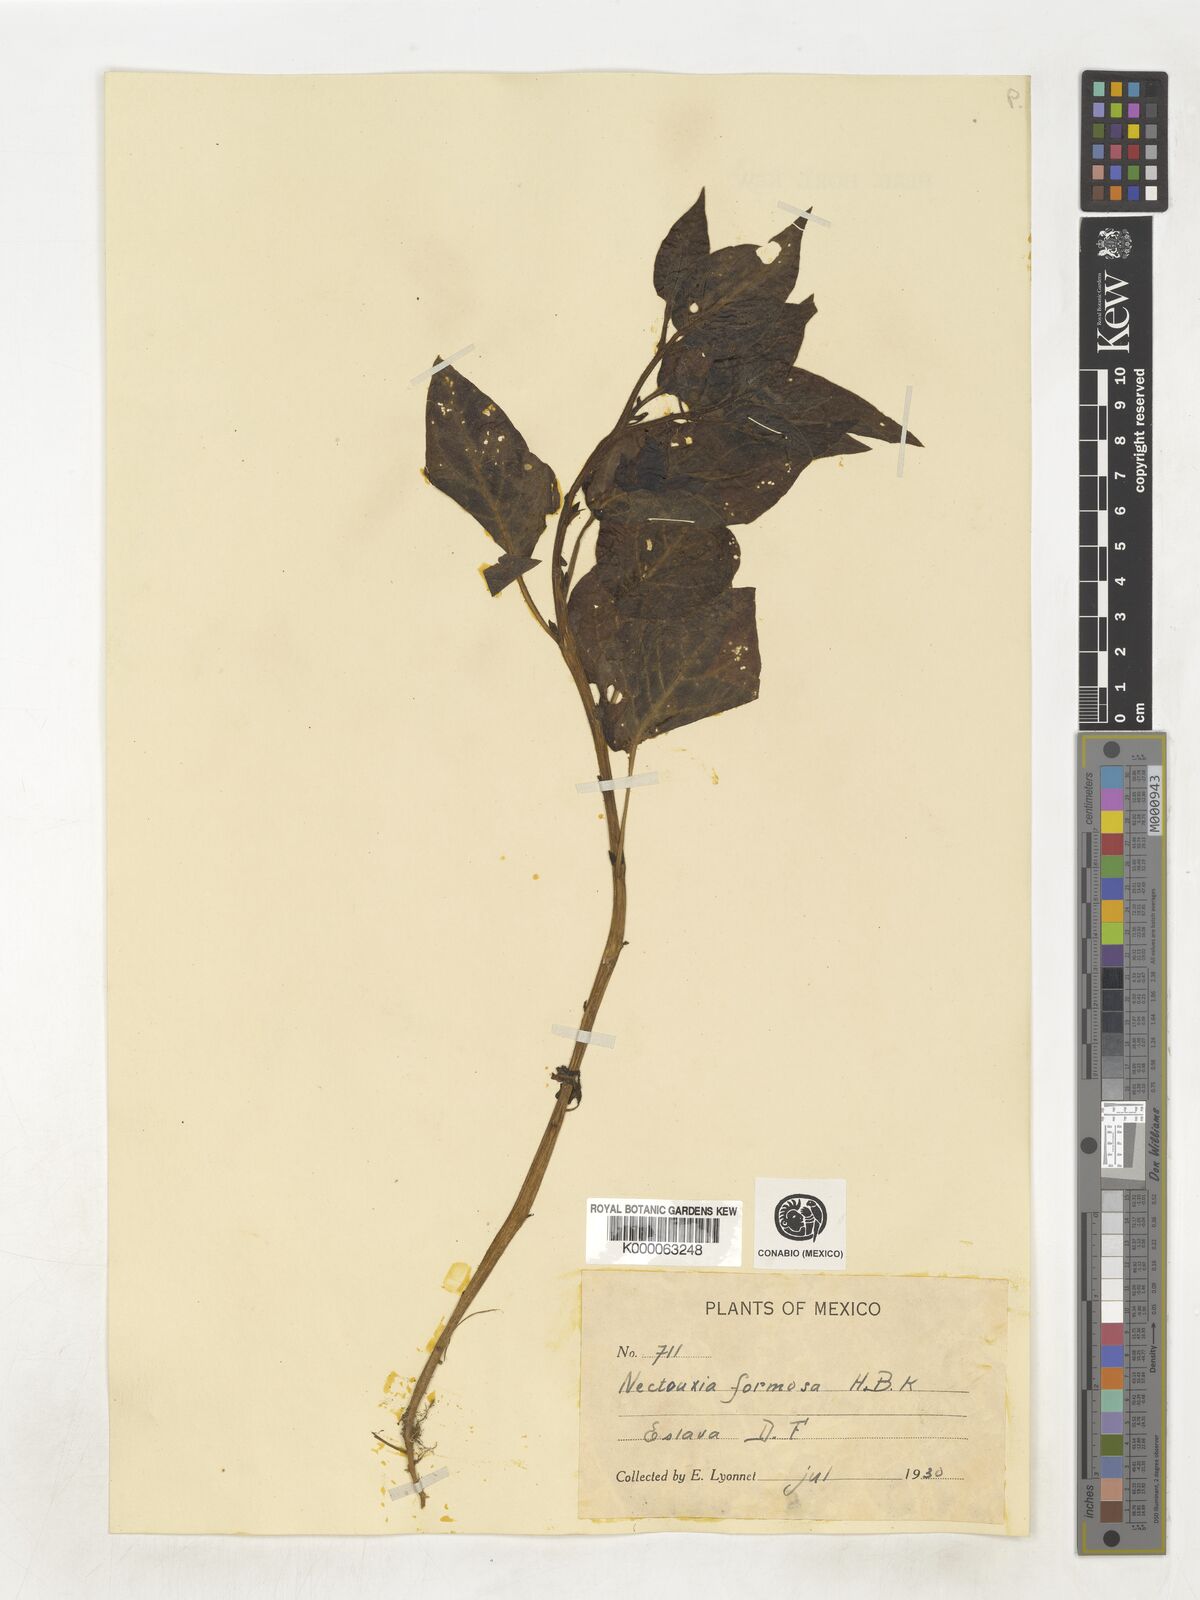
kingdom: Plantae
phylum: Tracheophyta
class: Magnoliopsida
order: Solanales
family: Solanaceae
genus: Nectouxia
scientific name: Nectouxia formosa
